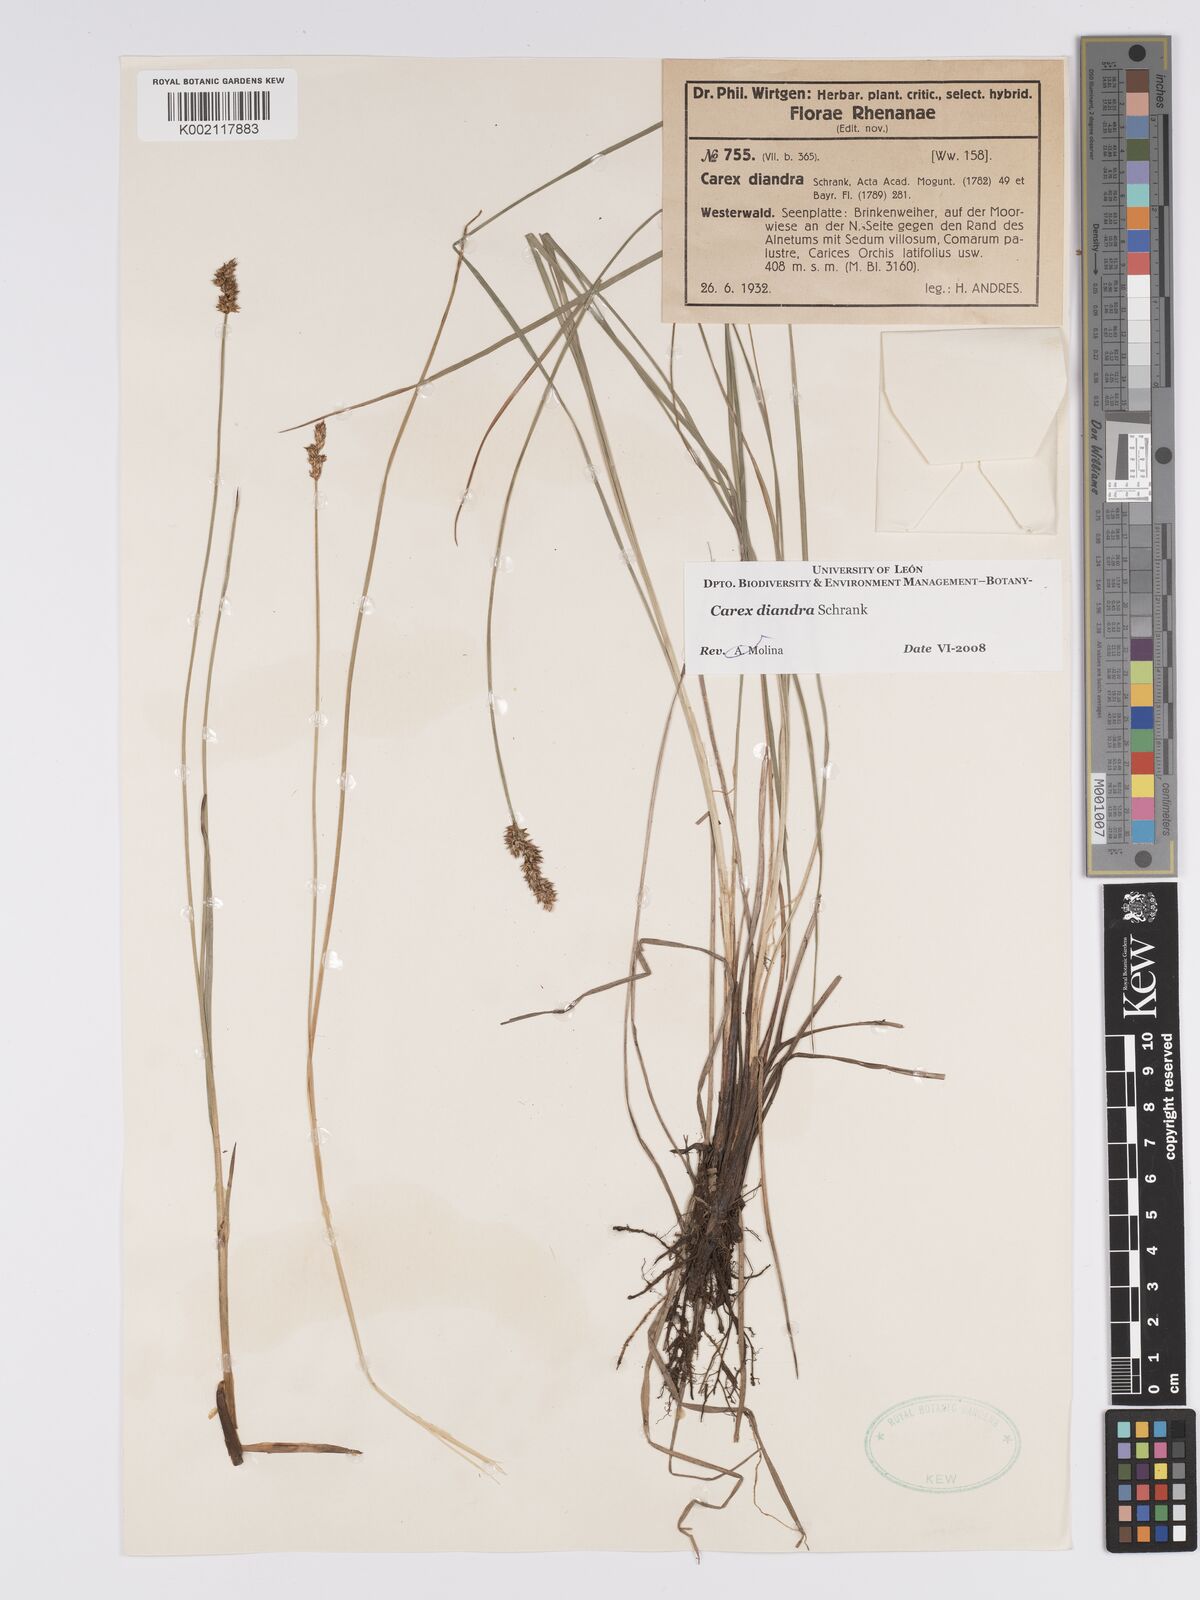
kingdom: Plantae
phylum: Tracheophyta
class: Liliopsida
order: Poales
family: Cyperaceae
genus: Carex
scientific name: Carex diandra
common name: Lesser tussock-sedge
